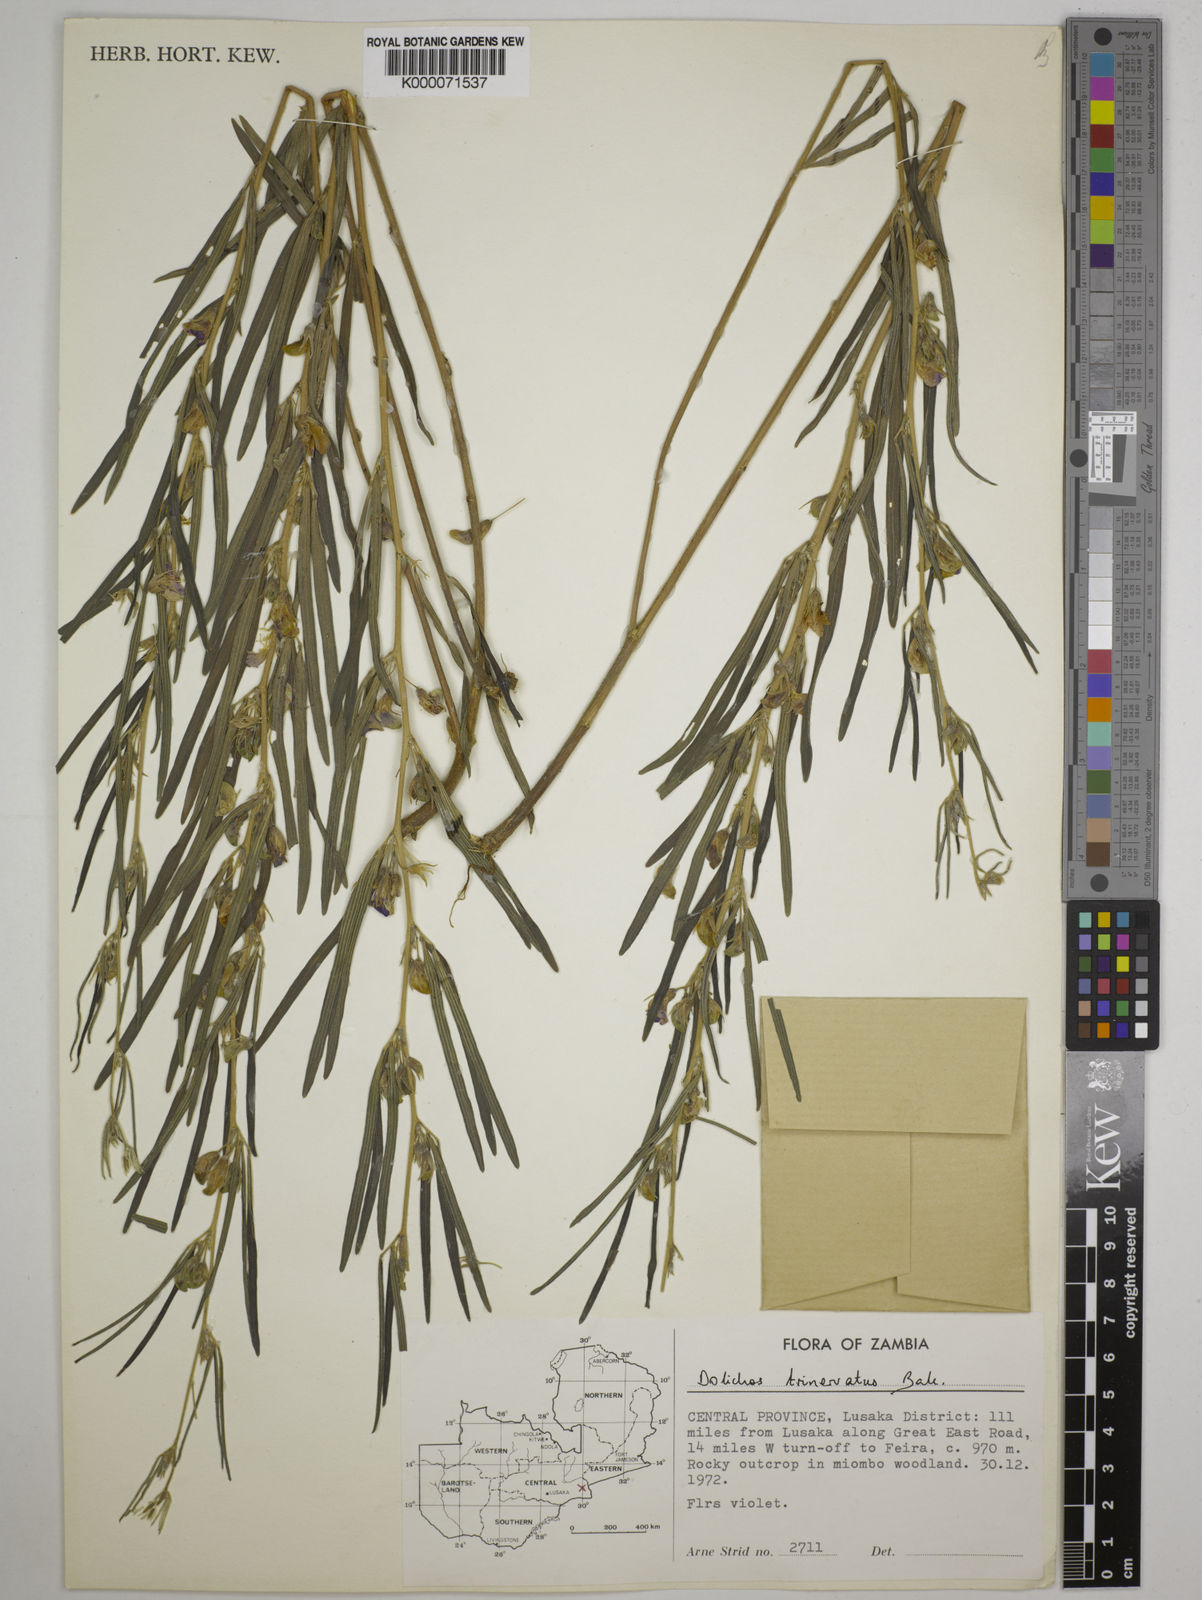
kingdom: Plantae
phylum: Tracheophyta
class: Magnoliopsida
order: Fabales
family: Fabaceae
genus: Dolichos
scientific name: Dolichos trinervatus
